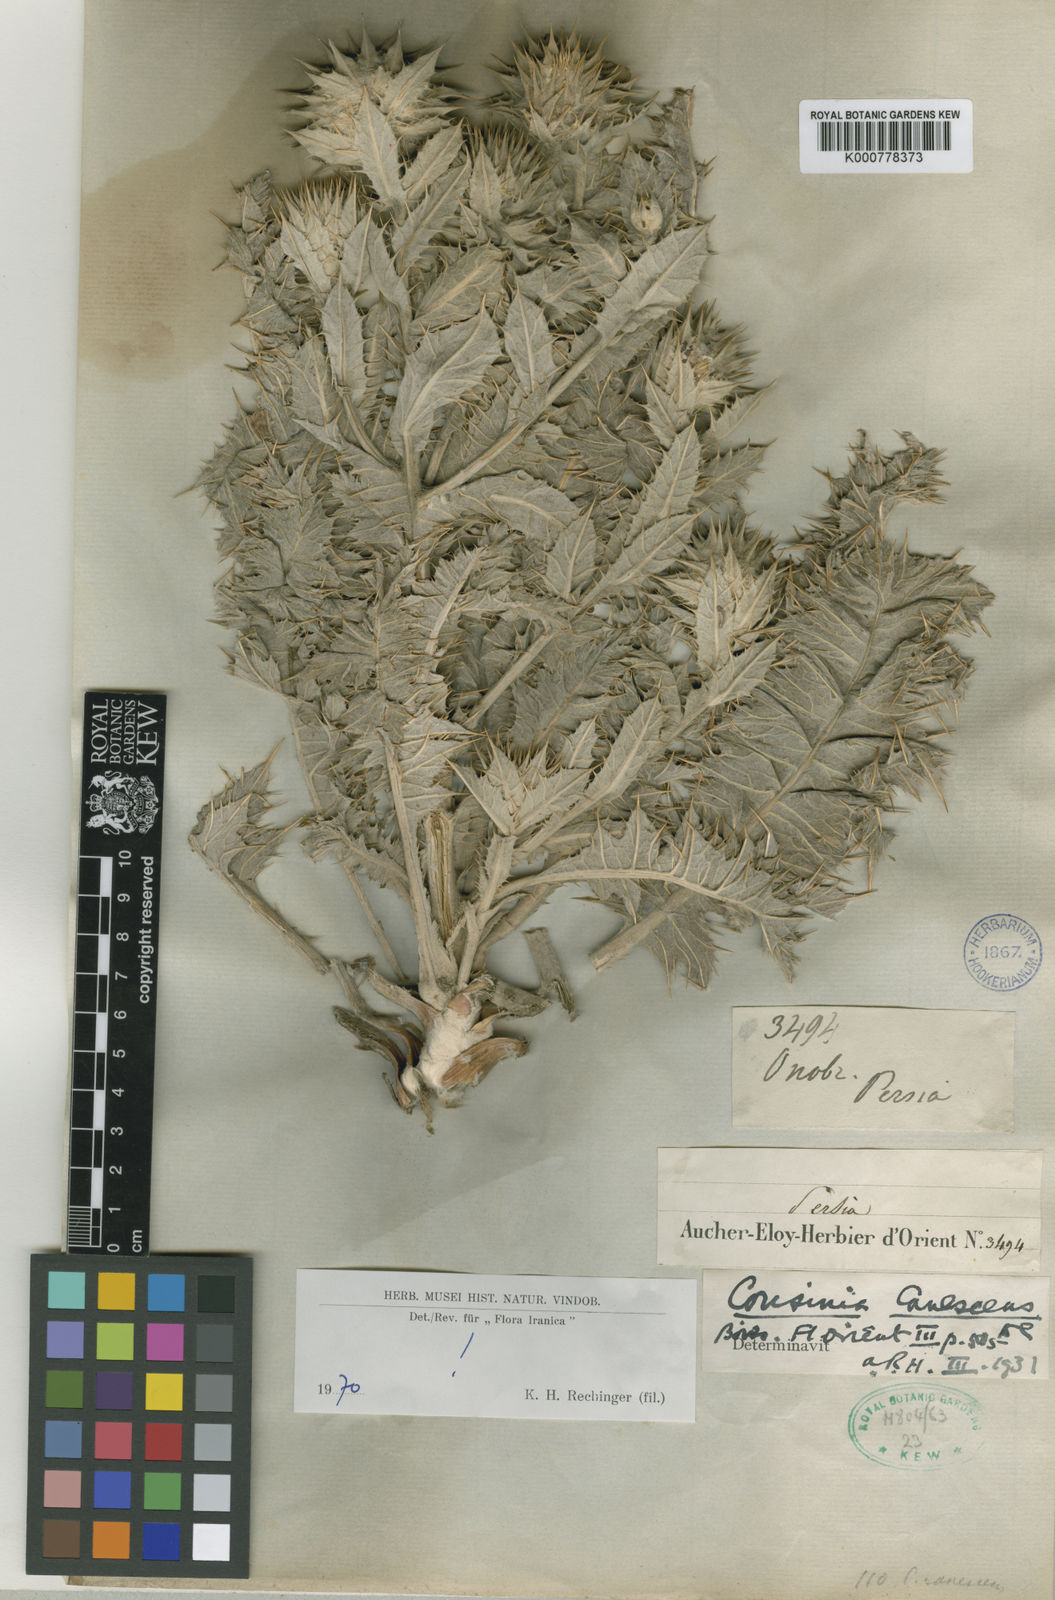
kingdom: Plantae
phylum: Tracheophyta
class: Magnoliopsida
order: Asterales
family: Asteraceae
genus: Cousinia
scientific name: Cousinia canescens
